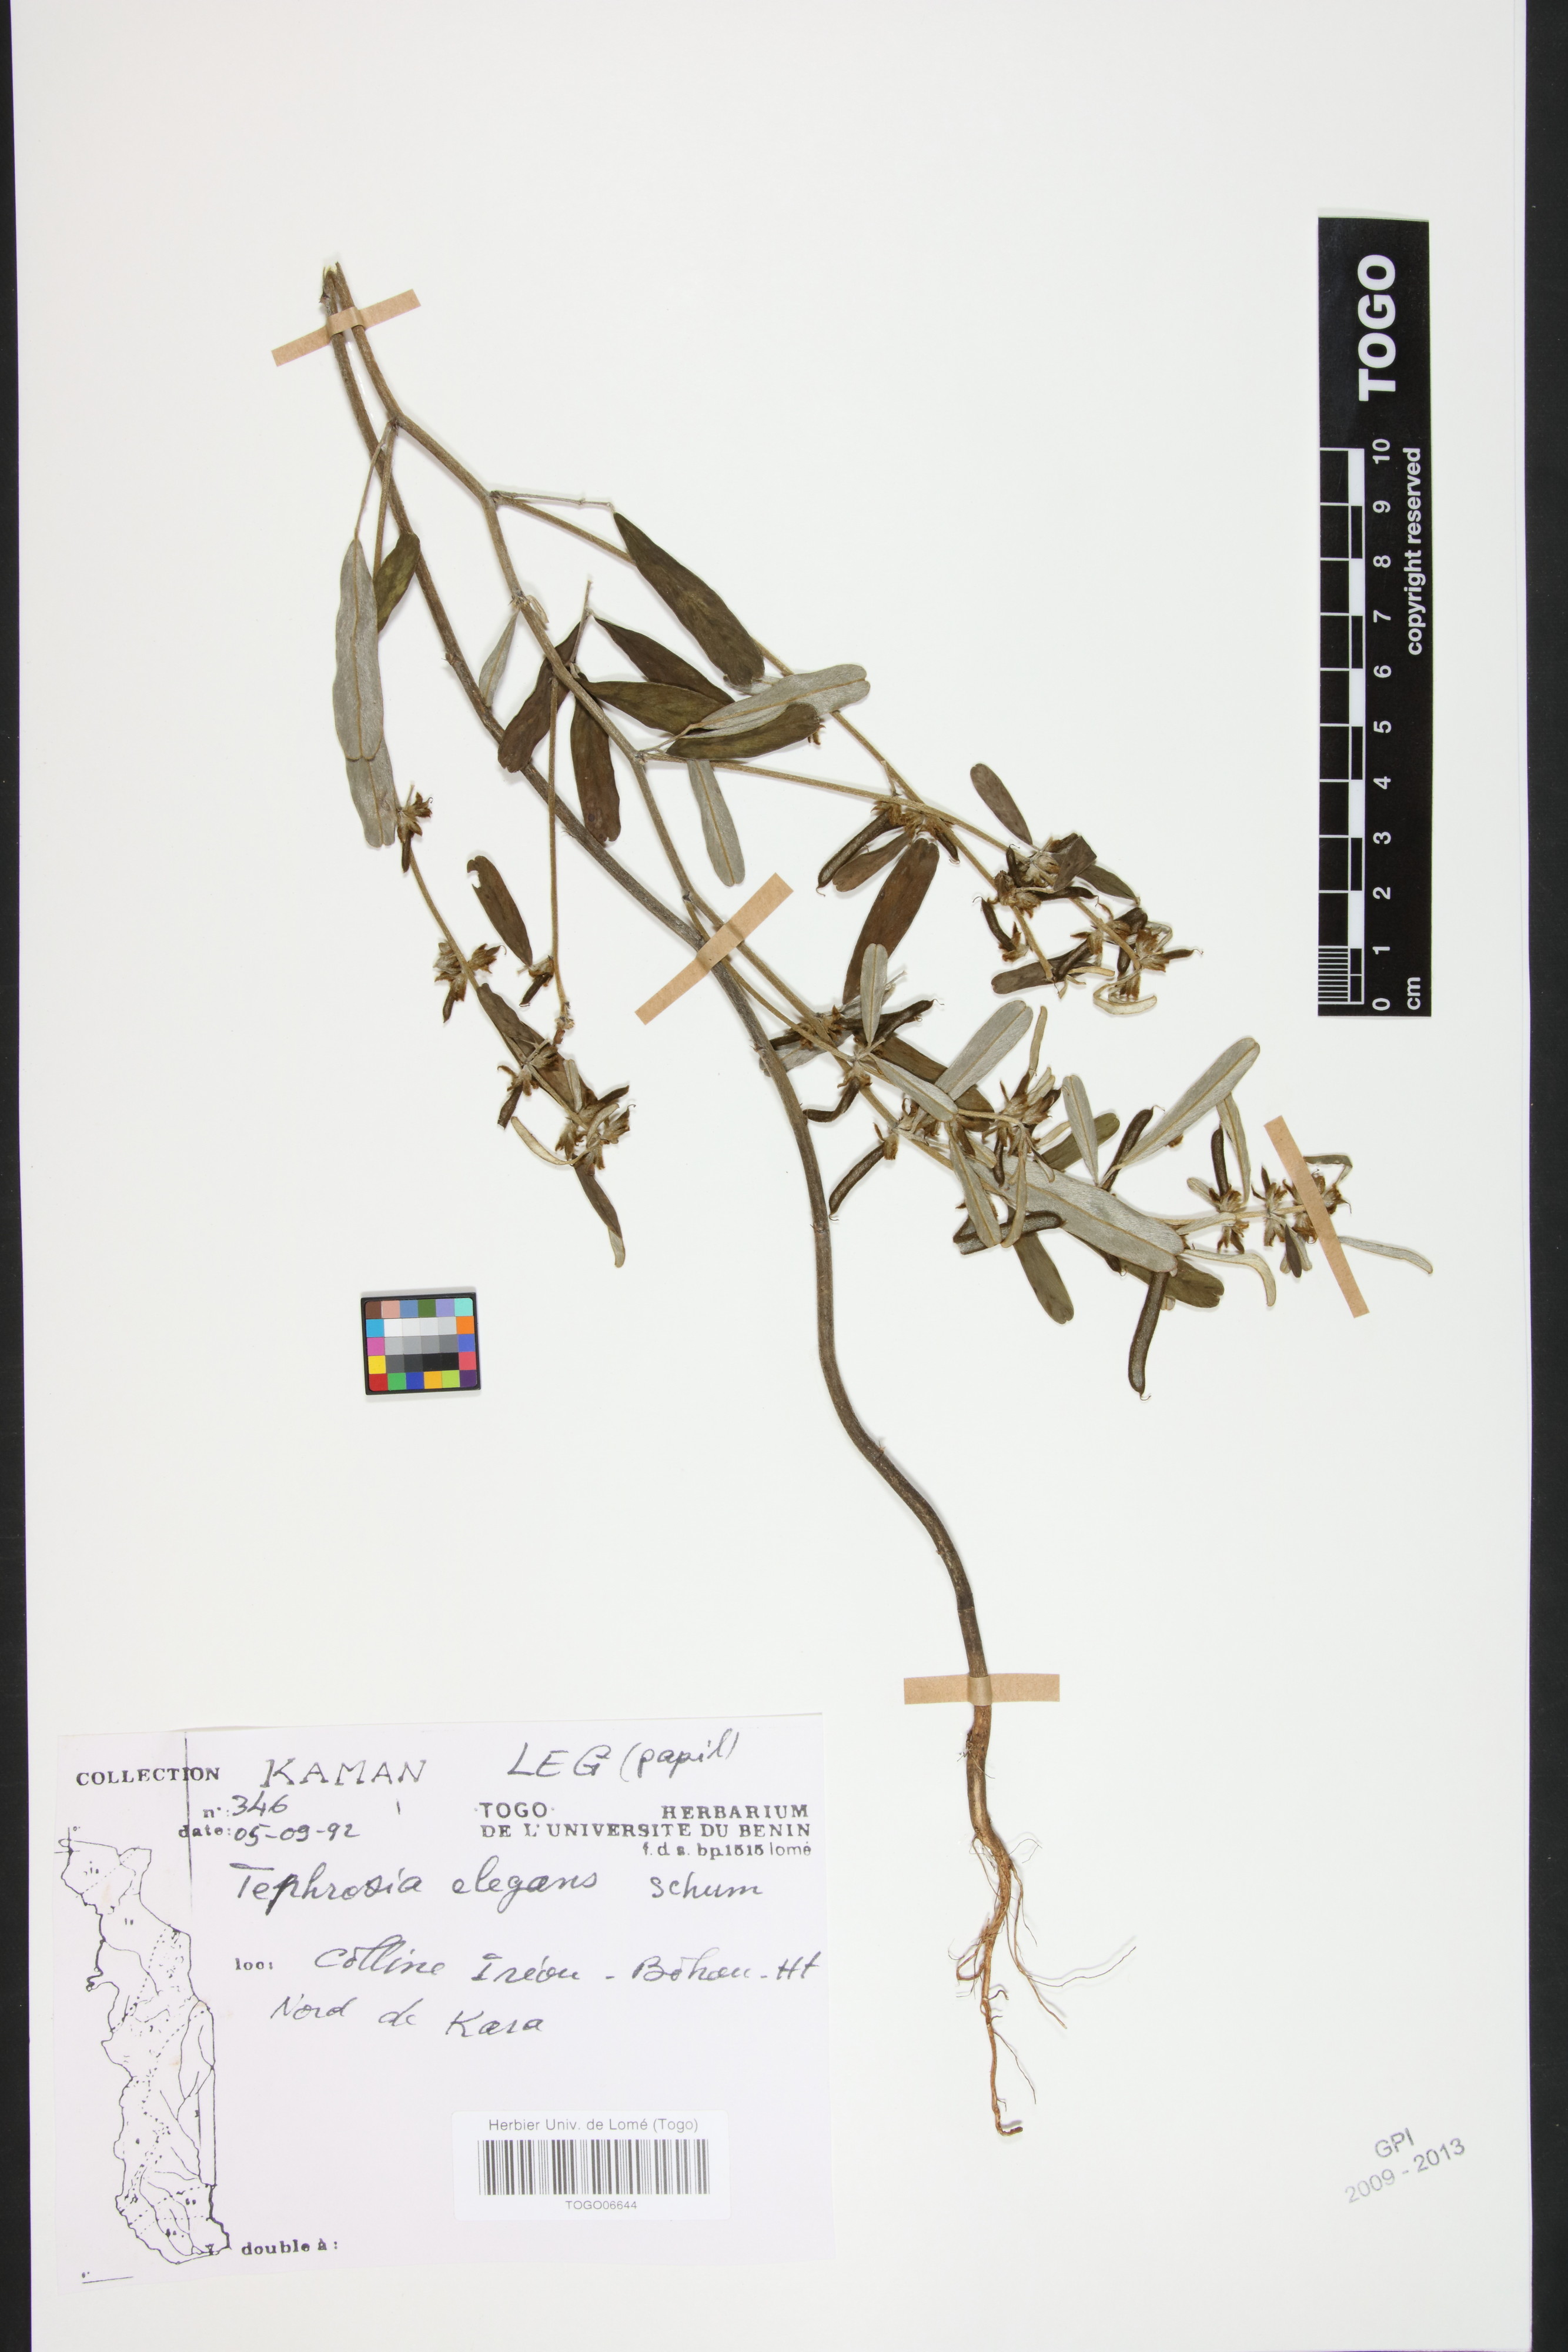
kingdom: Plantae
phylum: Tracheophyta
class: Magnoliopsida
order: Fabales
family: Fabaceae
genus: Tephrosia
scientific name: Tephrosia elegans
